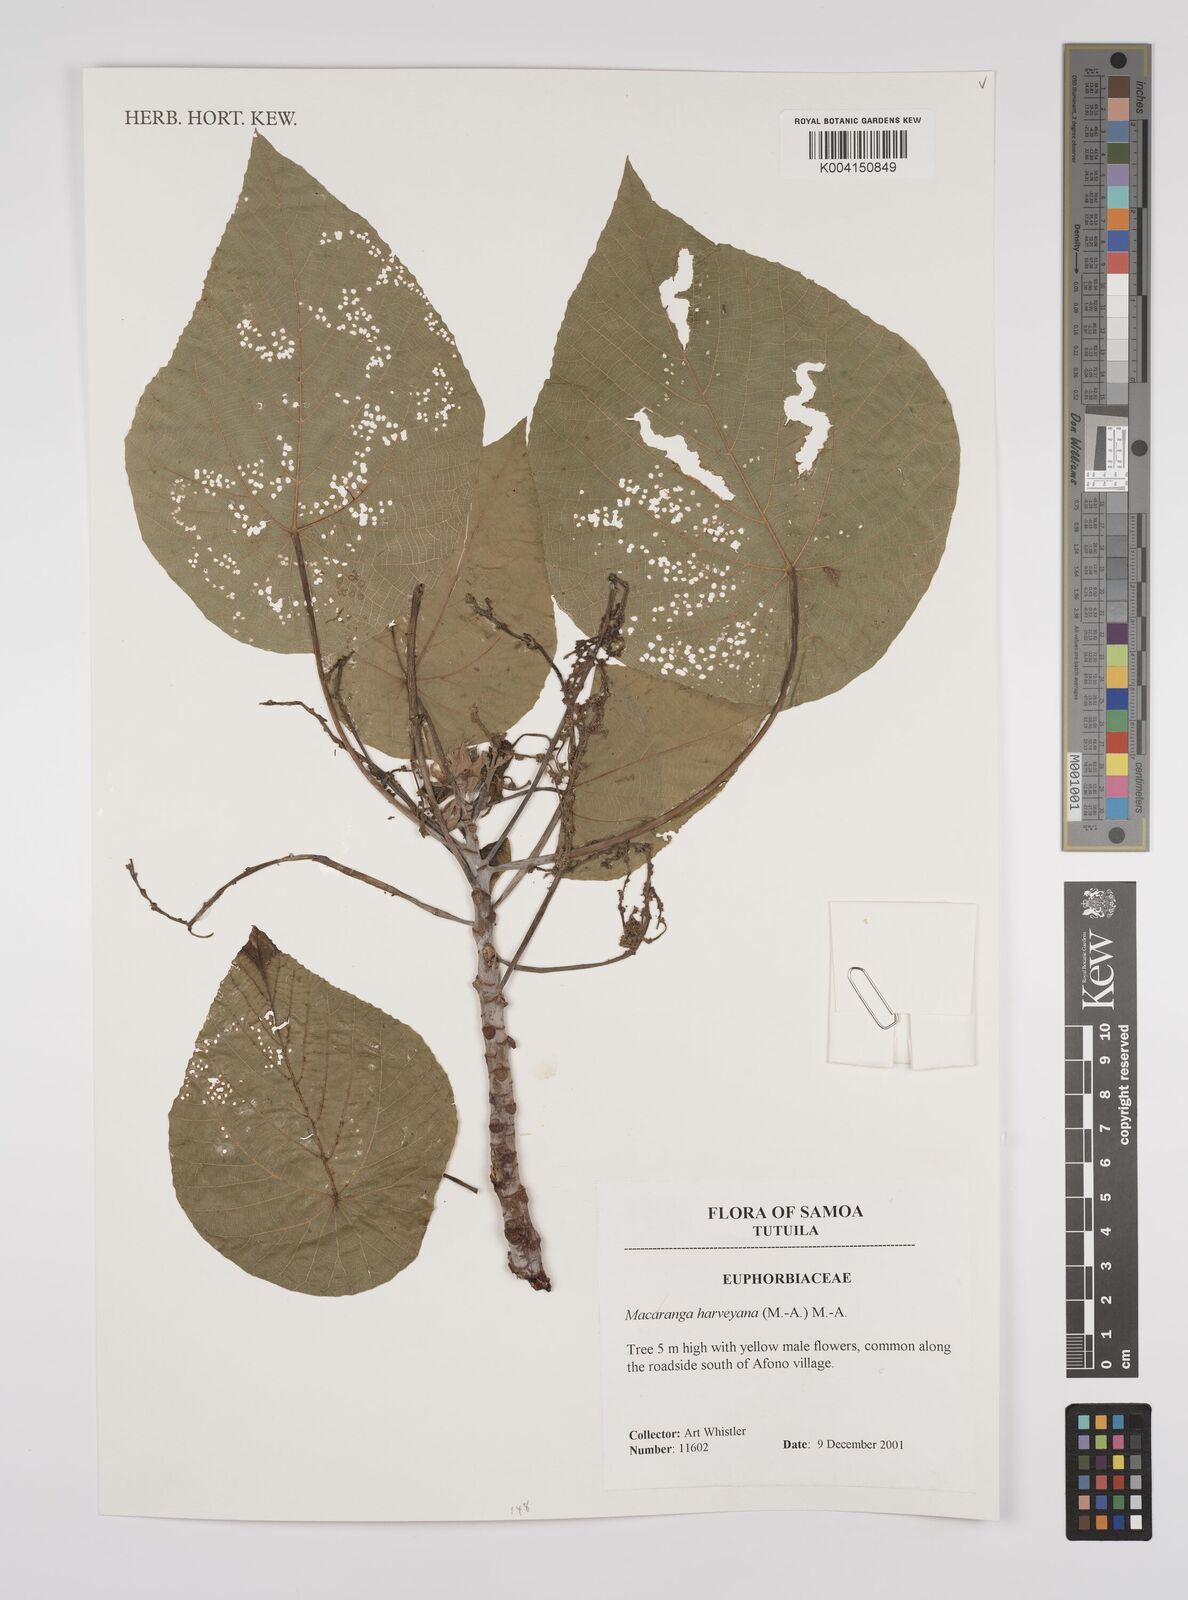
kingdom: Plantae
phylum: Tracheophyta
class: Magnoliopsida
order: Malpighiales
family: Euphorbiaceae
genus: Macaranga
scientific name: Macaranga harveyana
